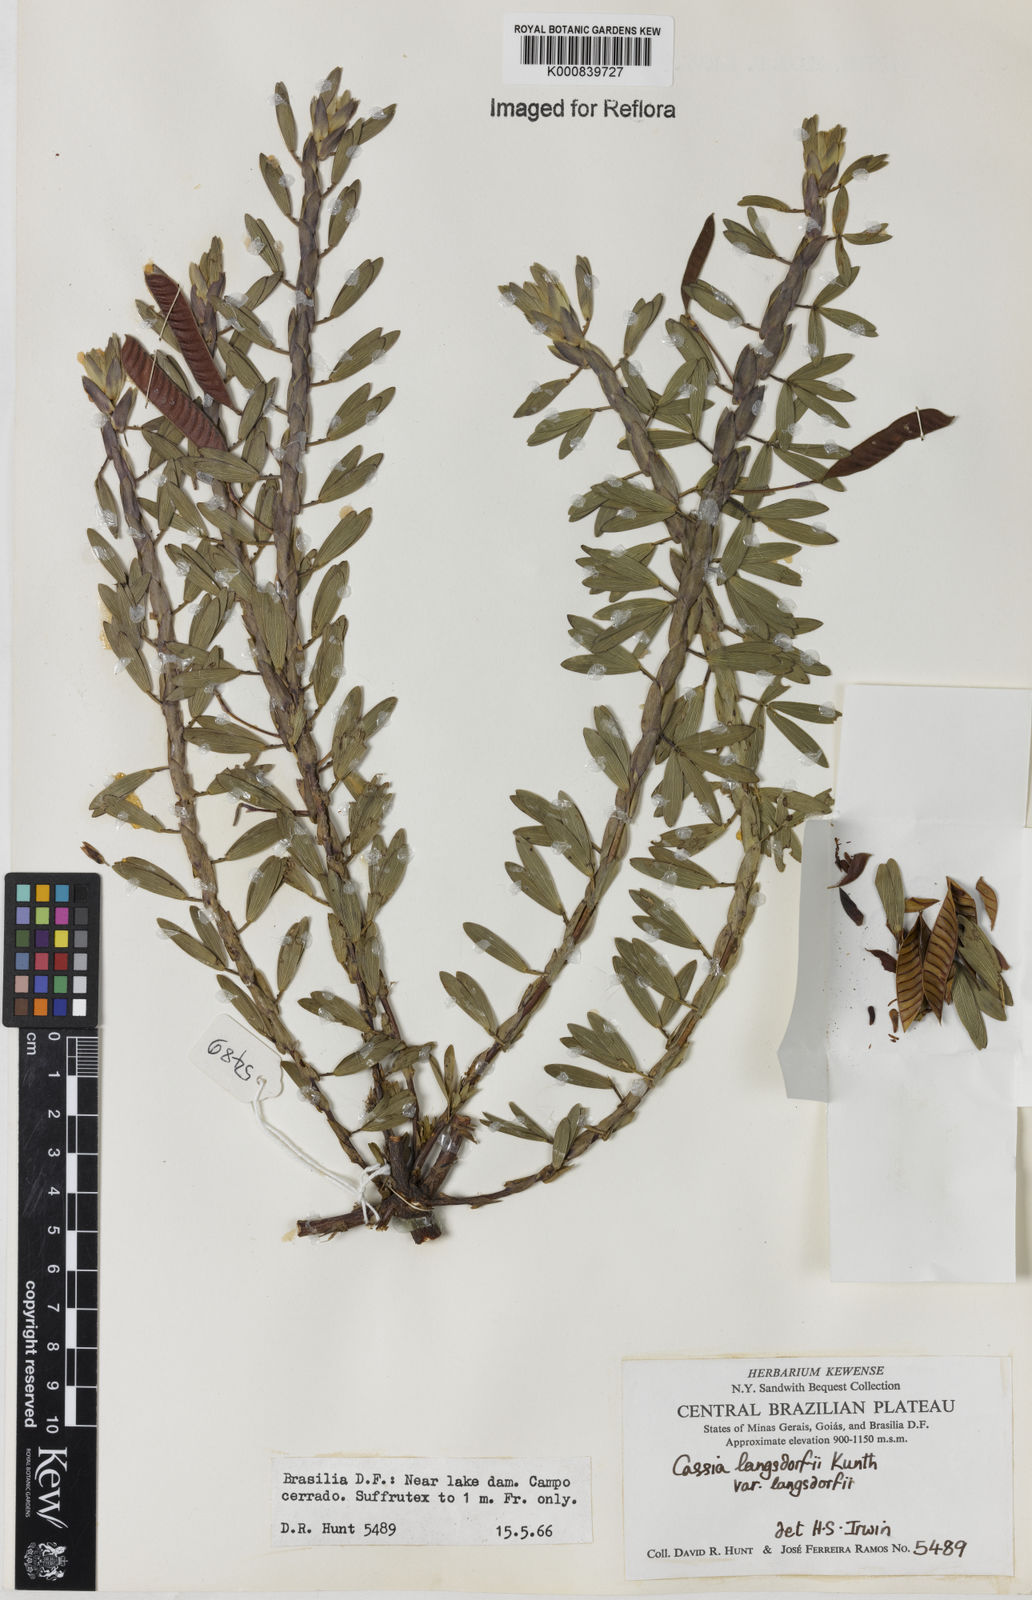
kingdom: Plantae
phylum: Tracheophyta
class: Magnoliopsida
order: Fabales
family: Fabaceae
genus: Chamaecrista
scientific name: Chamaecrista langsdorffii
